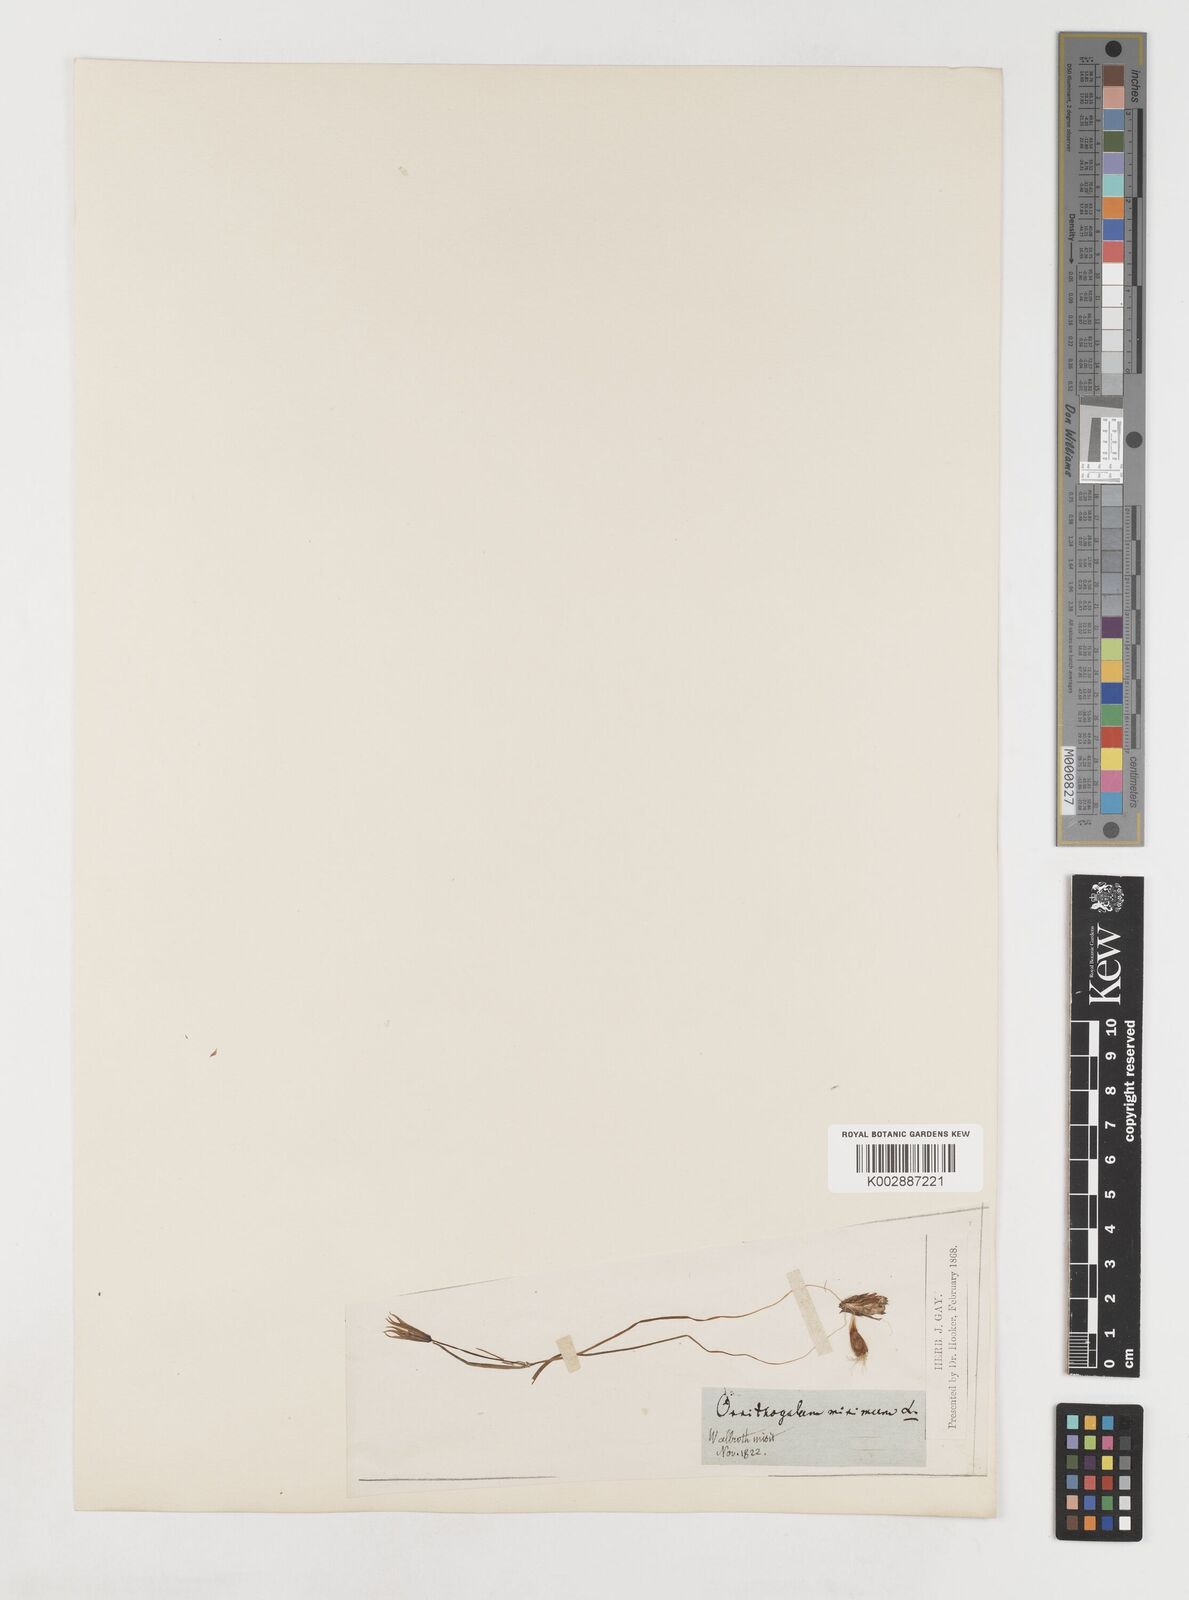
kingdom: Plantae
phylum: Tracheophyta
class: Liliopsida
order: Liliales
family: Liliaceae
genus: Gagea
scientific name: Gagea minima
